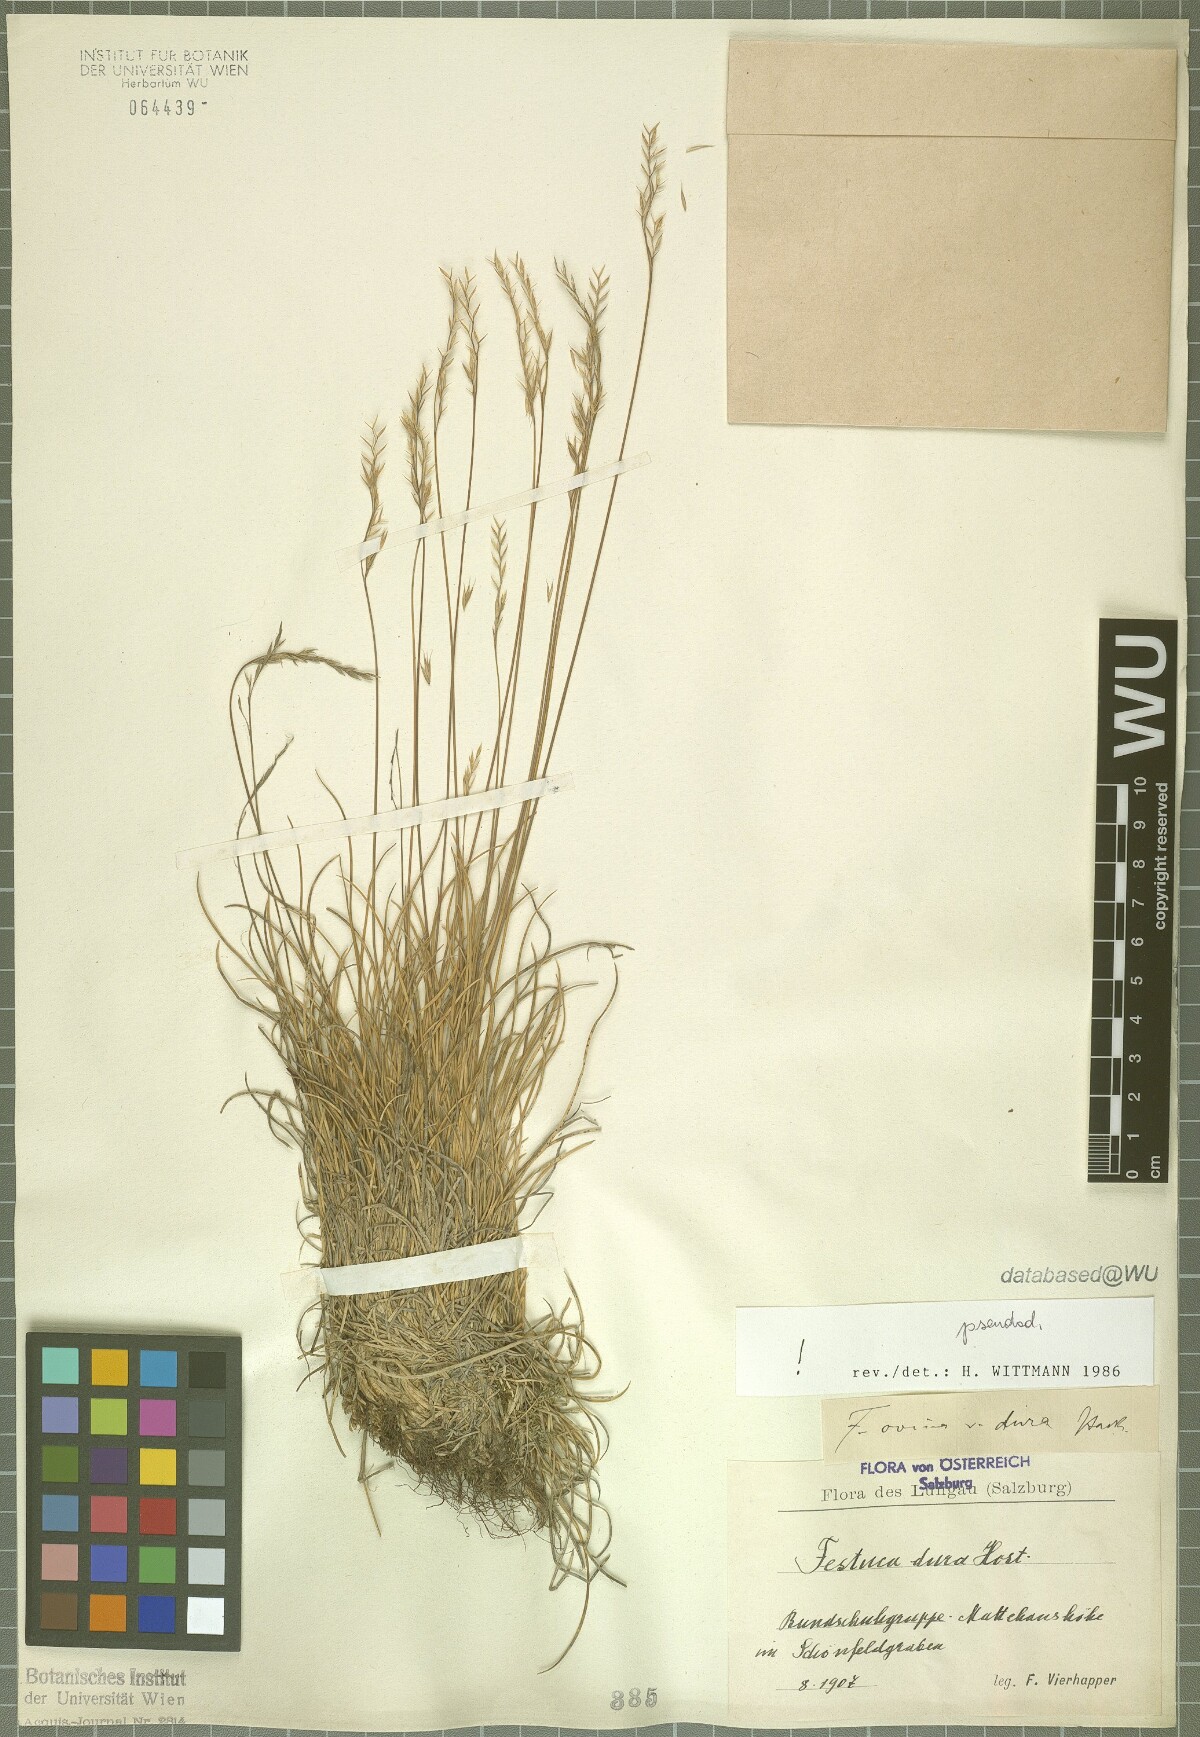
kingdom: Plantae
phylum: Tracheophyta
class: Liliopsida
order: Poales
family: Poaceae
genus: Festuca
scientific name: Festuca pseudodura
